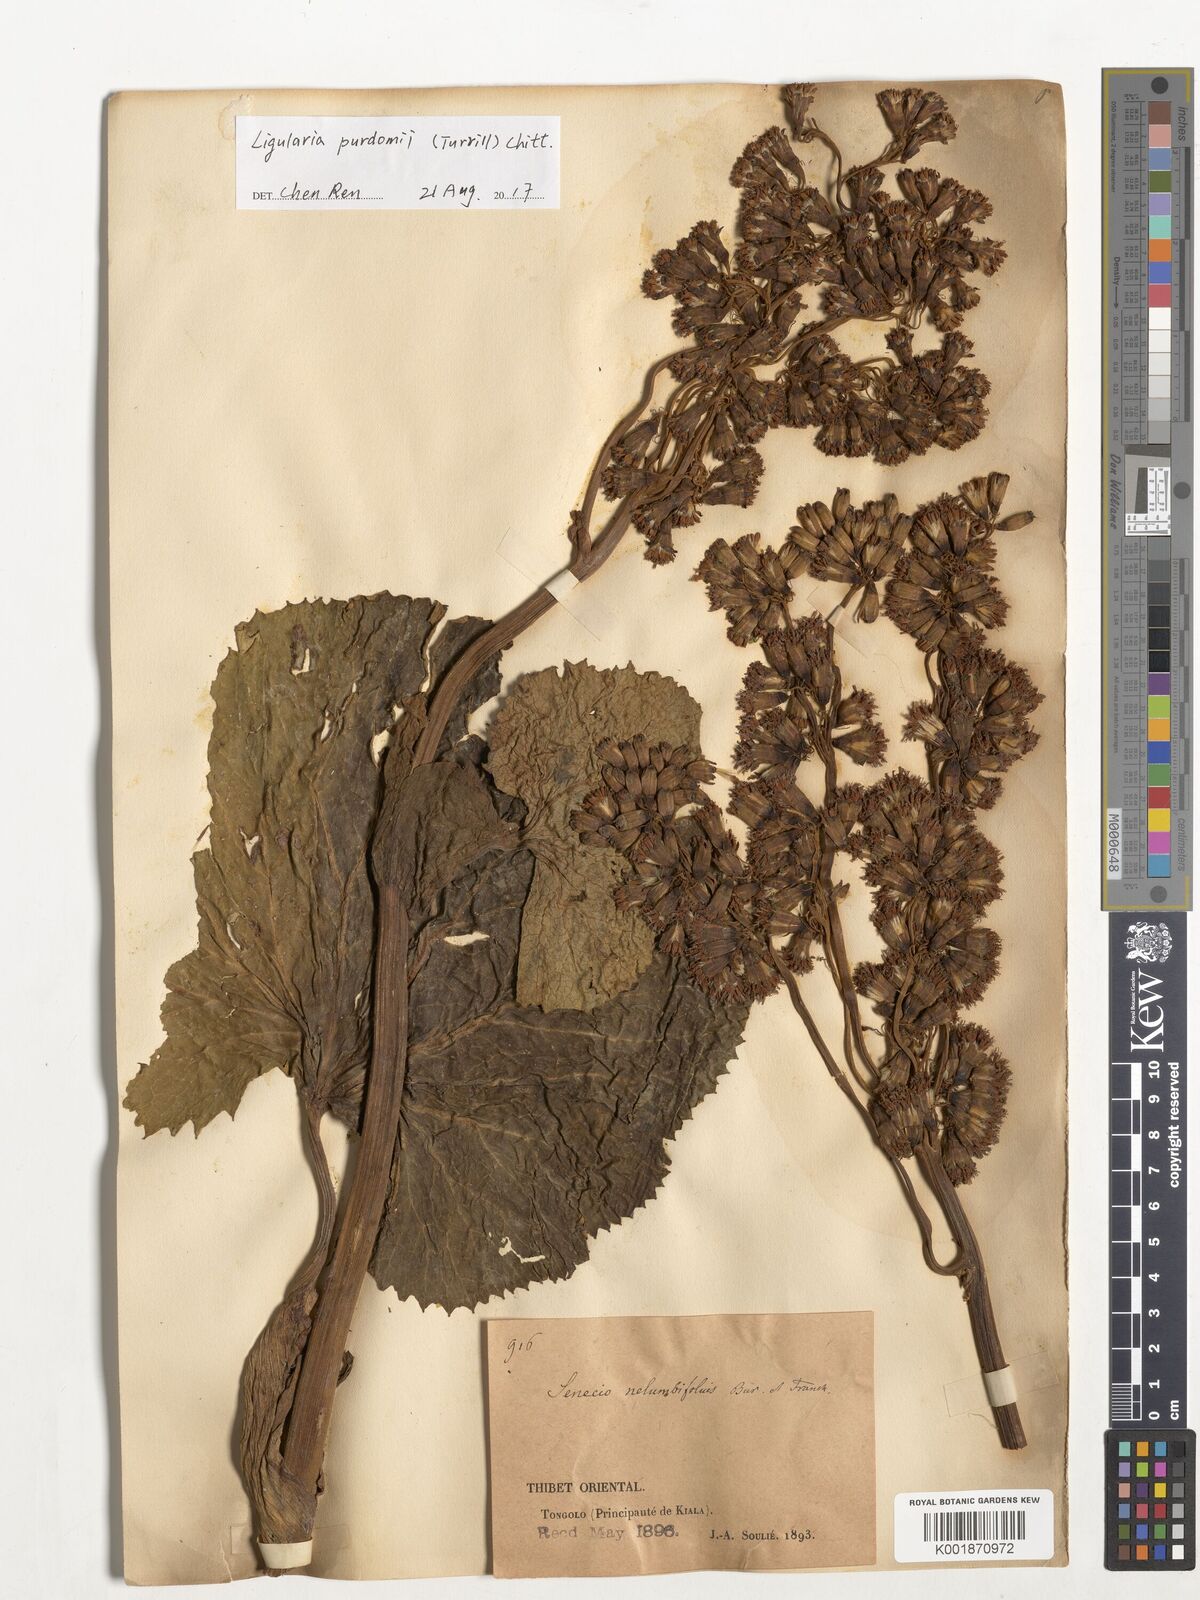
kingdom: Plantae
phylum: Tracheophyta
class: Magnoliopsida
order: Asterales
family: Asteraceae
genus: Ligularia
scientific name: Ligularia purdomii
